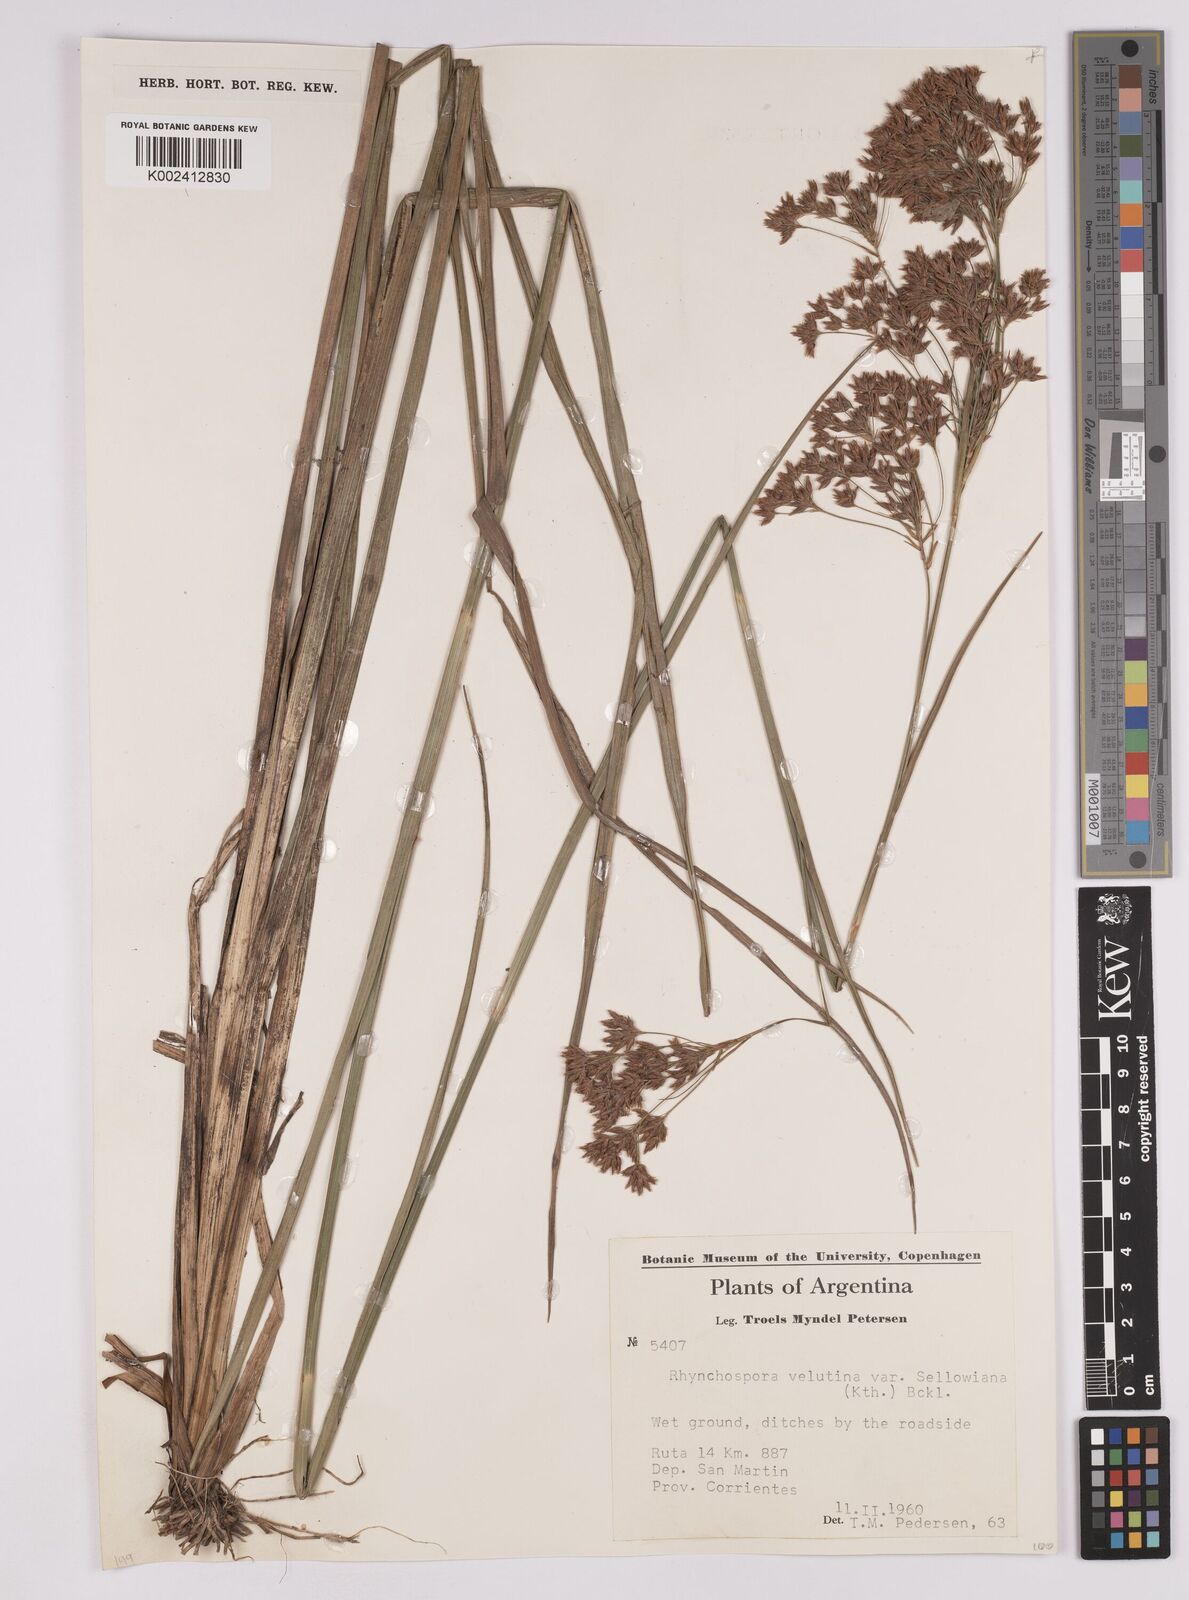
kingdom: Plantae
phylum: Tracheophyta
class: Liliopsida
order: Poales
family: Cyperaceae
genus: Rhynchospora
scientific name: Rhynchospora robusta
